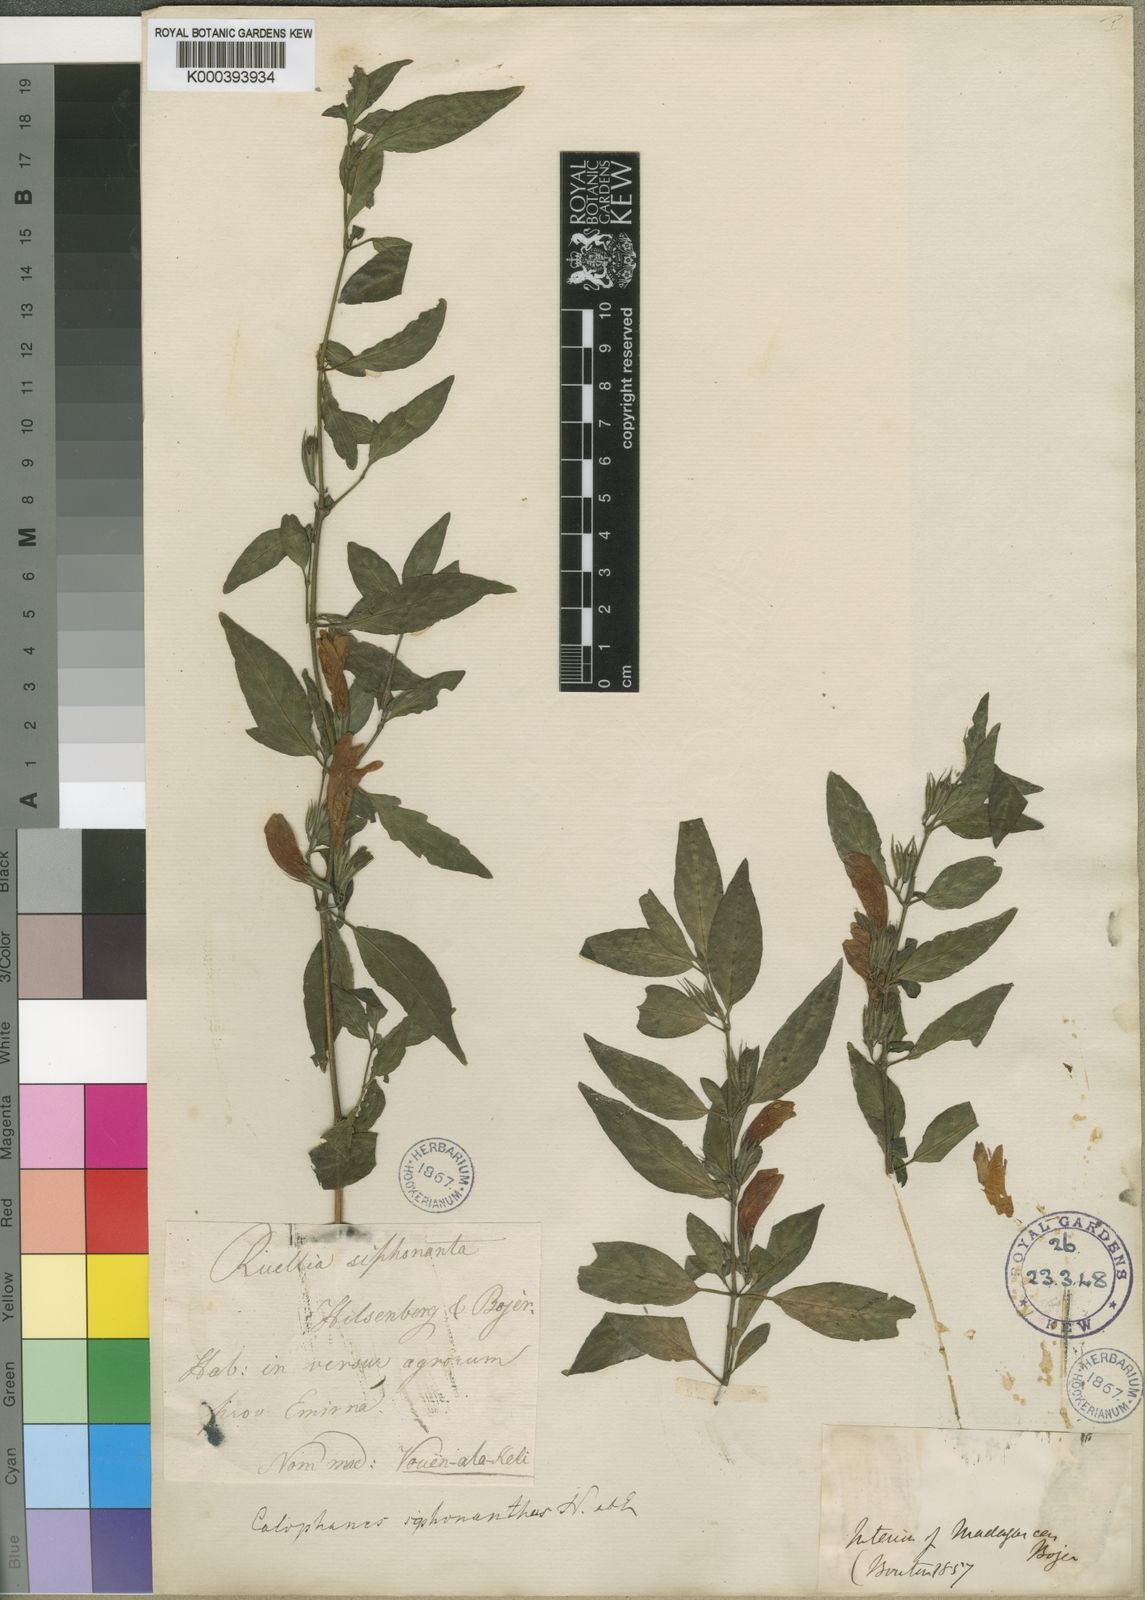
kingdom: Plantae
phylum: Tracheophyta
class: Magnoliopsida
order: Lamiales
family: Acanthaceae
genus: Dyschoriste
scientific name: Dyschoriste siphonantha
